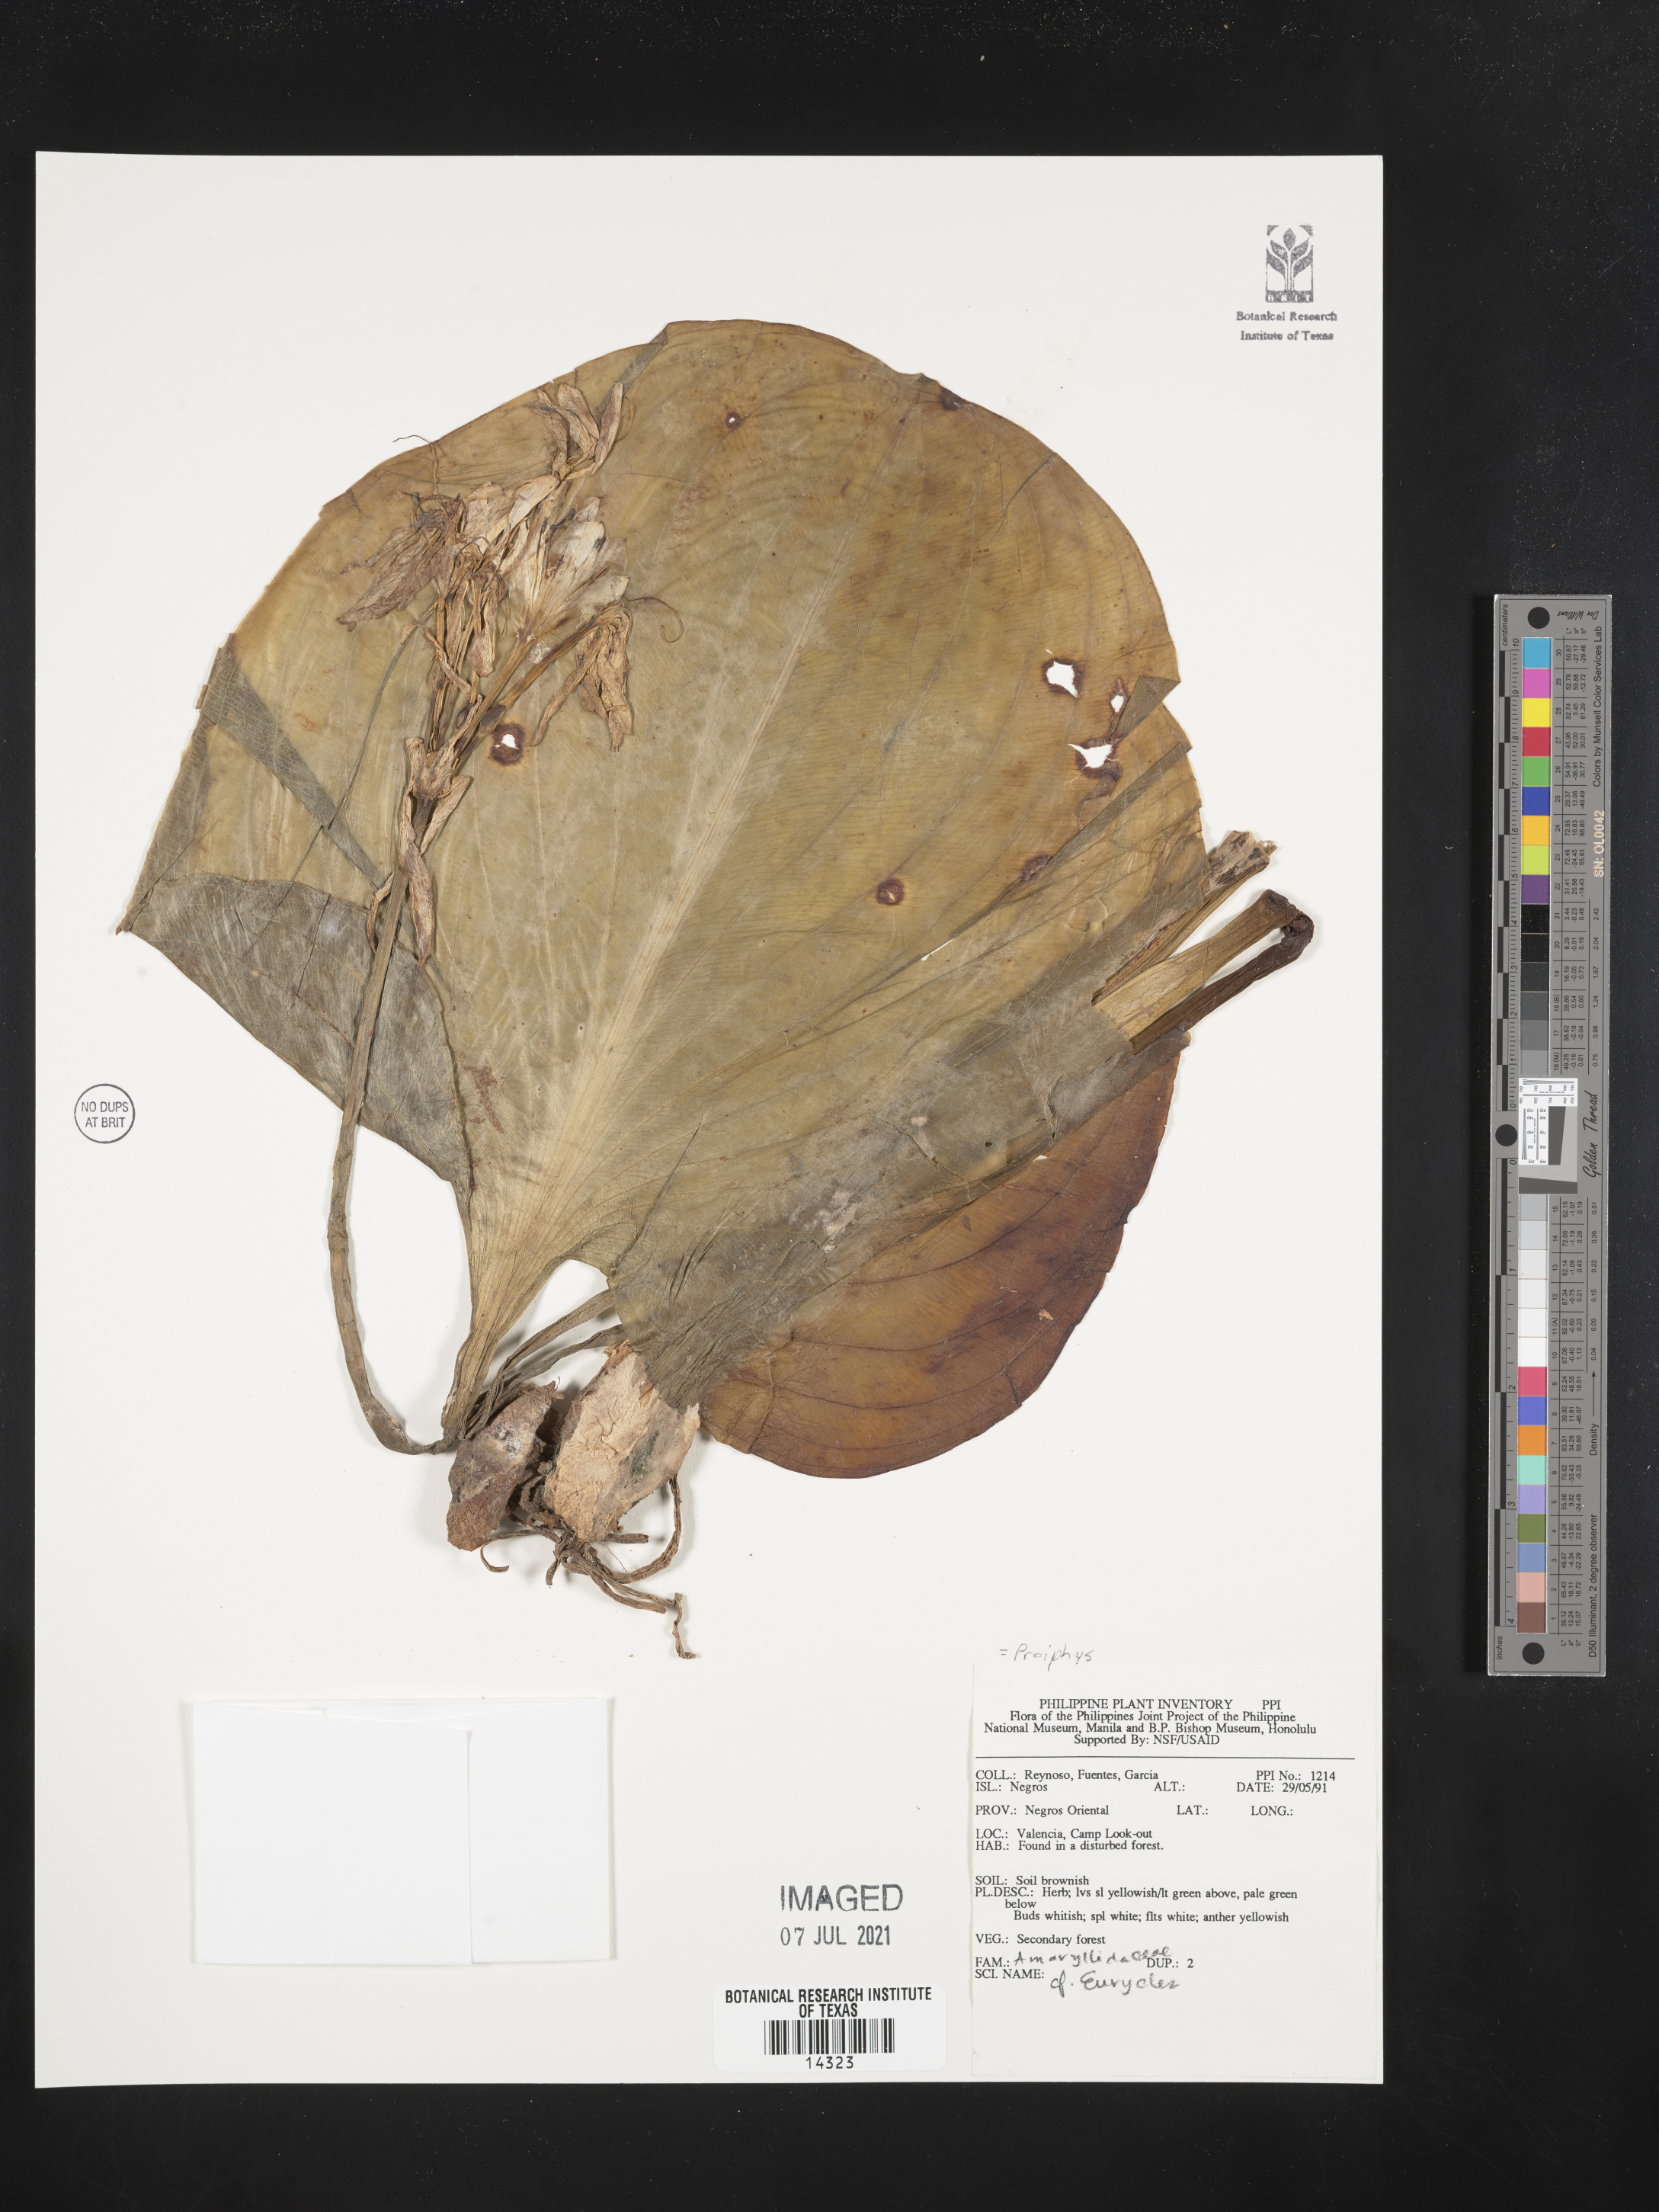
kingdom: Plantae
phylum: Tracheophyta
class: Liliopsida
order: Asparagales
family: Amaryllidaceae
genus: Eurycles
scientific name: Eurycles
